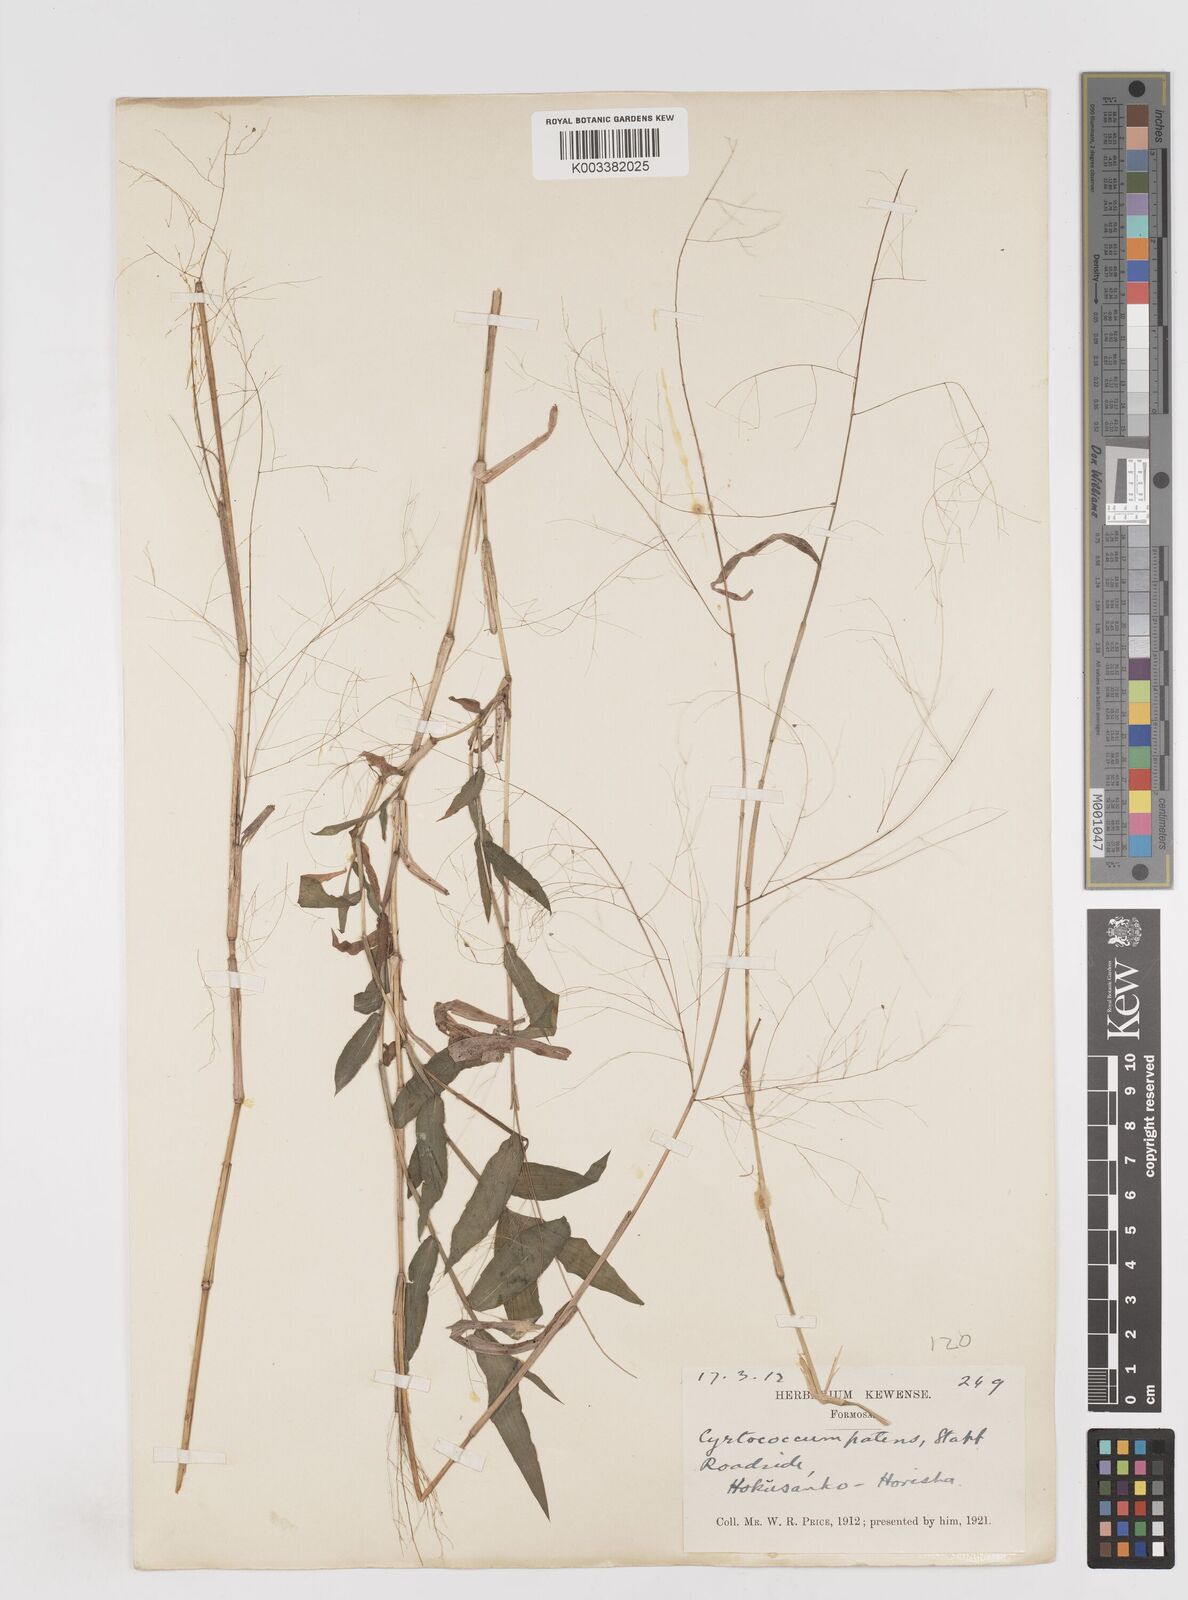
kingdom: Plantae
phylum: Tracheophyta
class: Liliopsida
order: Poales
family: Poaceae
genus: Cyrtococcum
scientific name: Cyrtococcum accrescens
